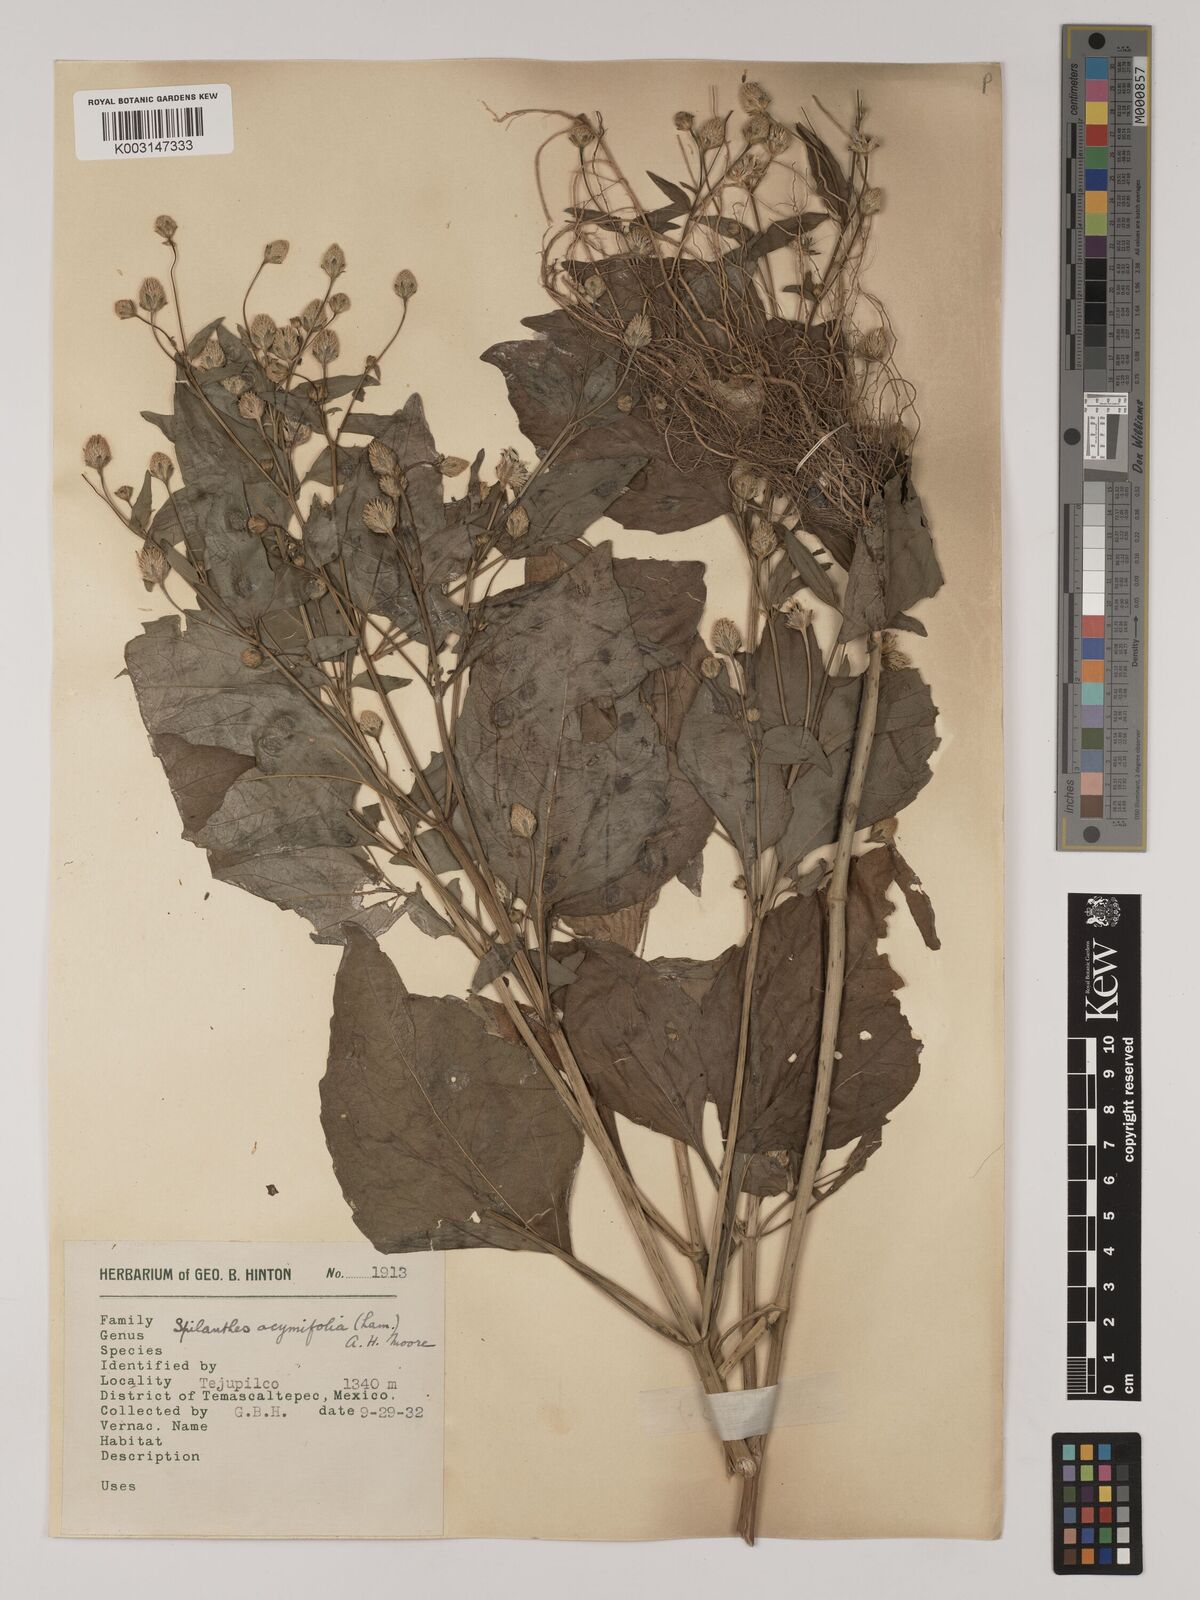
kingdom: Plantae
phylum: Tracheophyta
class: Magnoliopsida
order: Asterales
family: Asteraceae
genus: Acmella
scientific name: Acmella radicans
